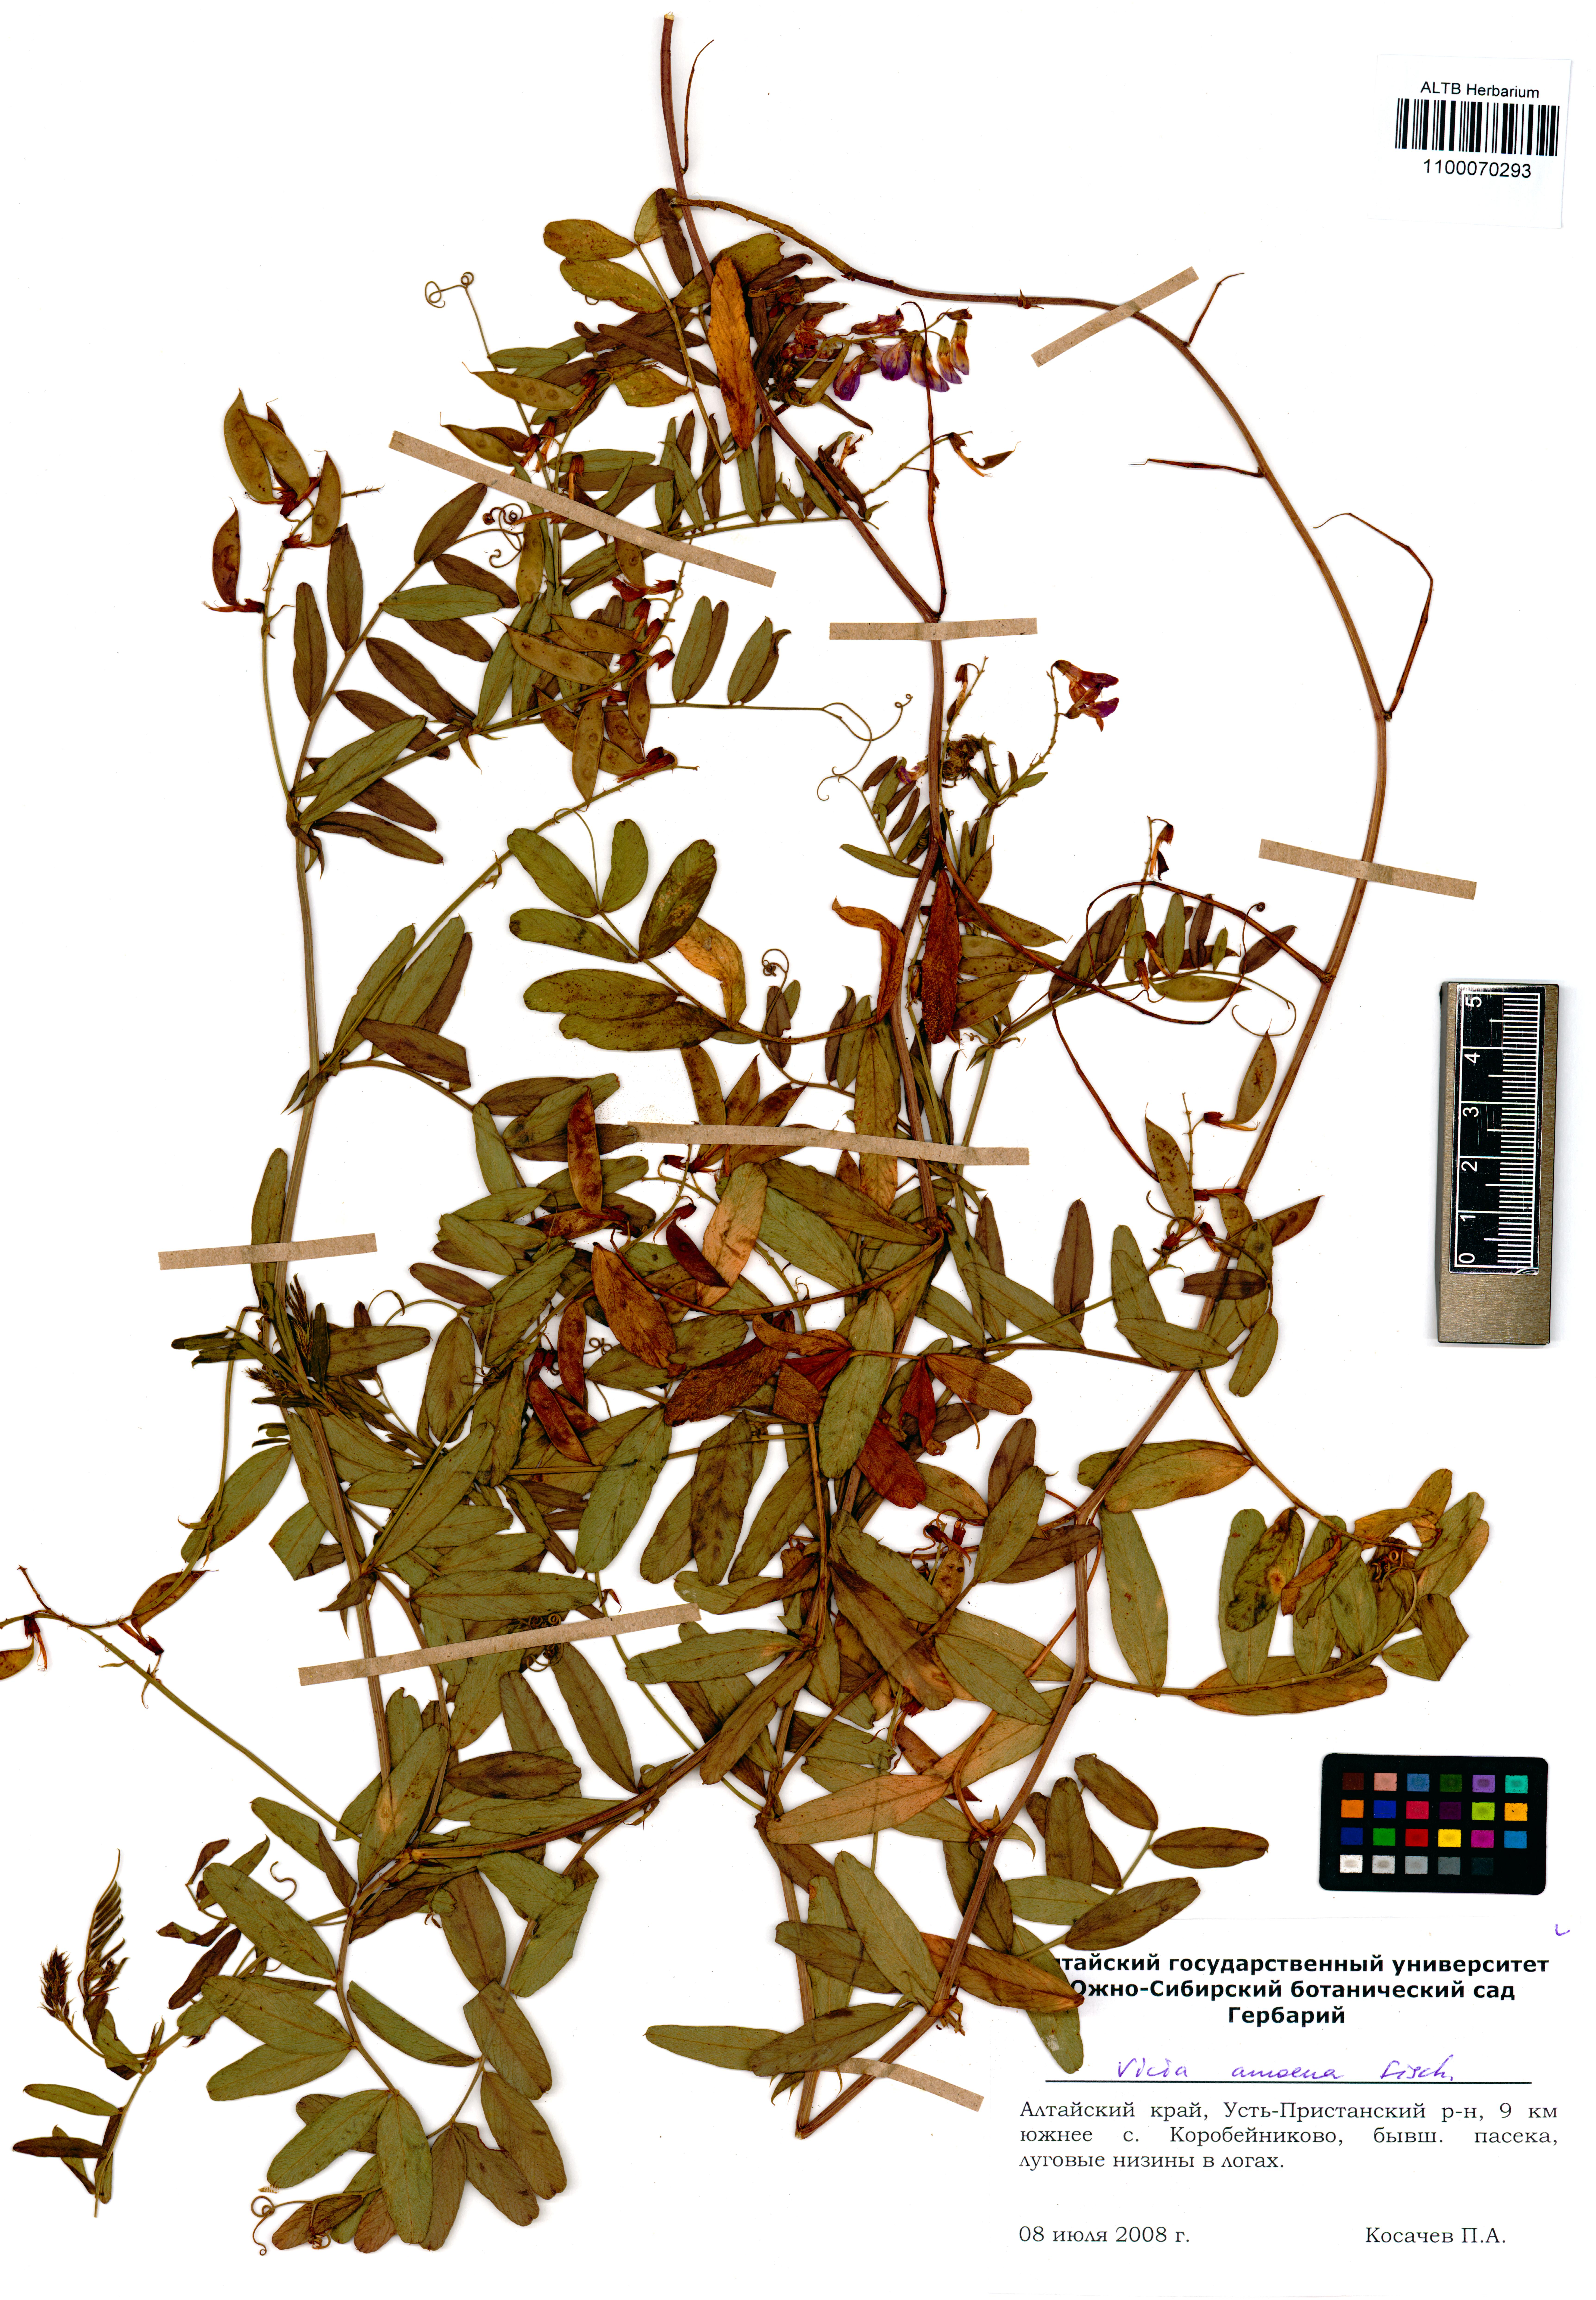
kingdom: Plantae
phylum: Tracheophyta
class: Magnoliopsida
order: Fabales
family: Fabaceae
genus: Vicia
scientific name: Vicia amoena
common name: Cheder ebs
